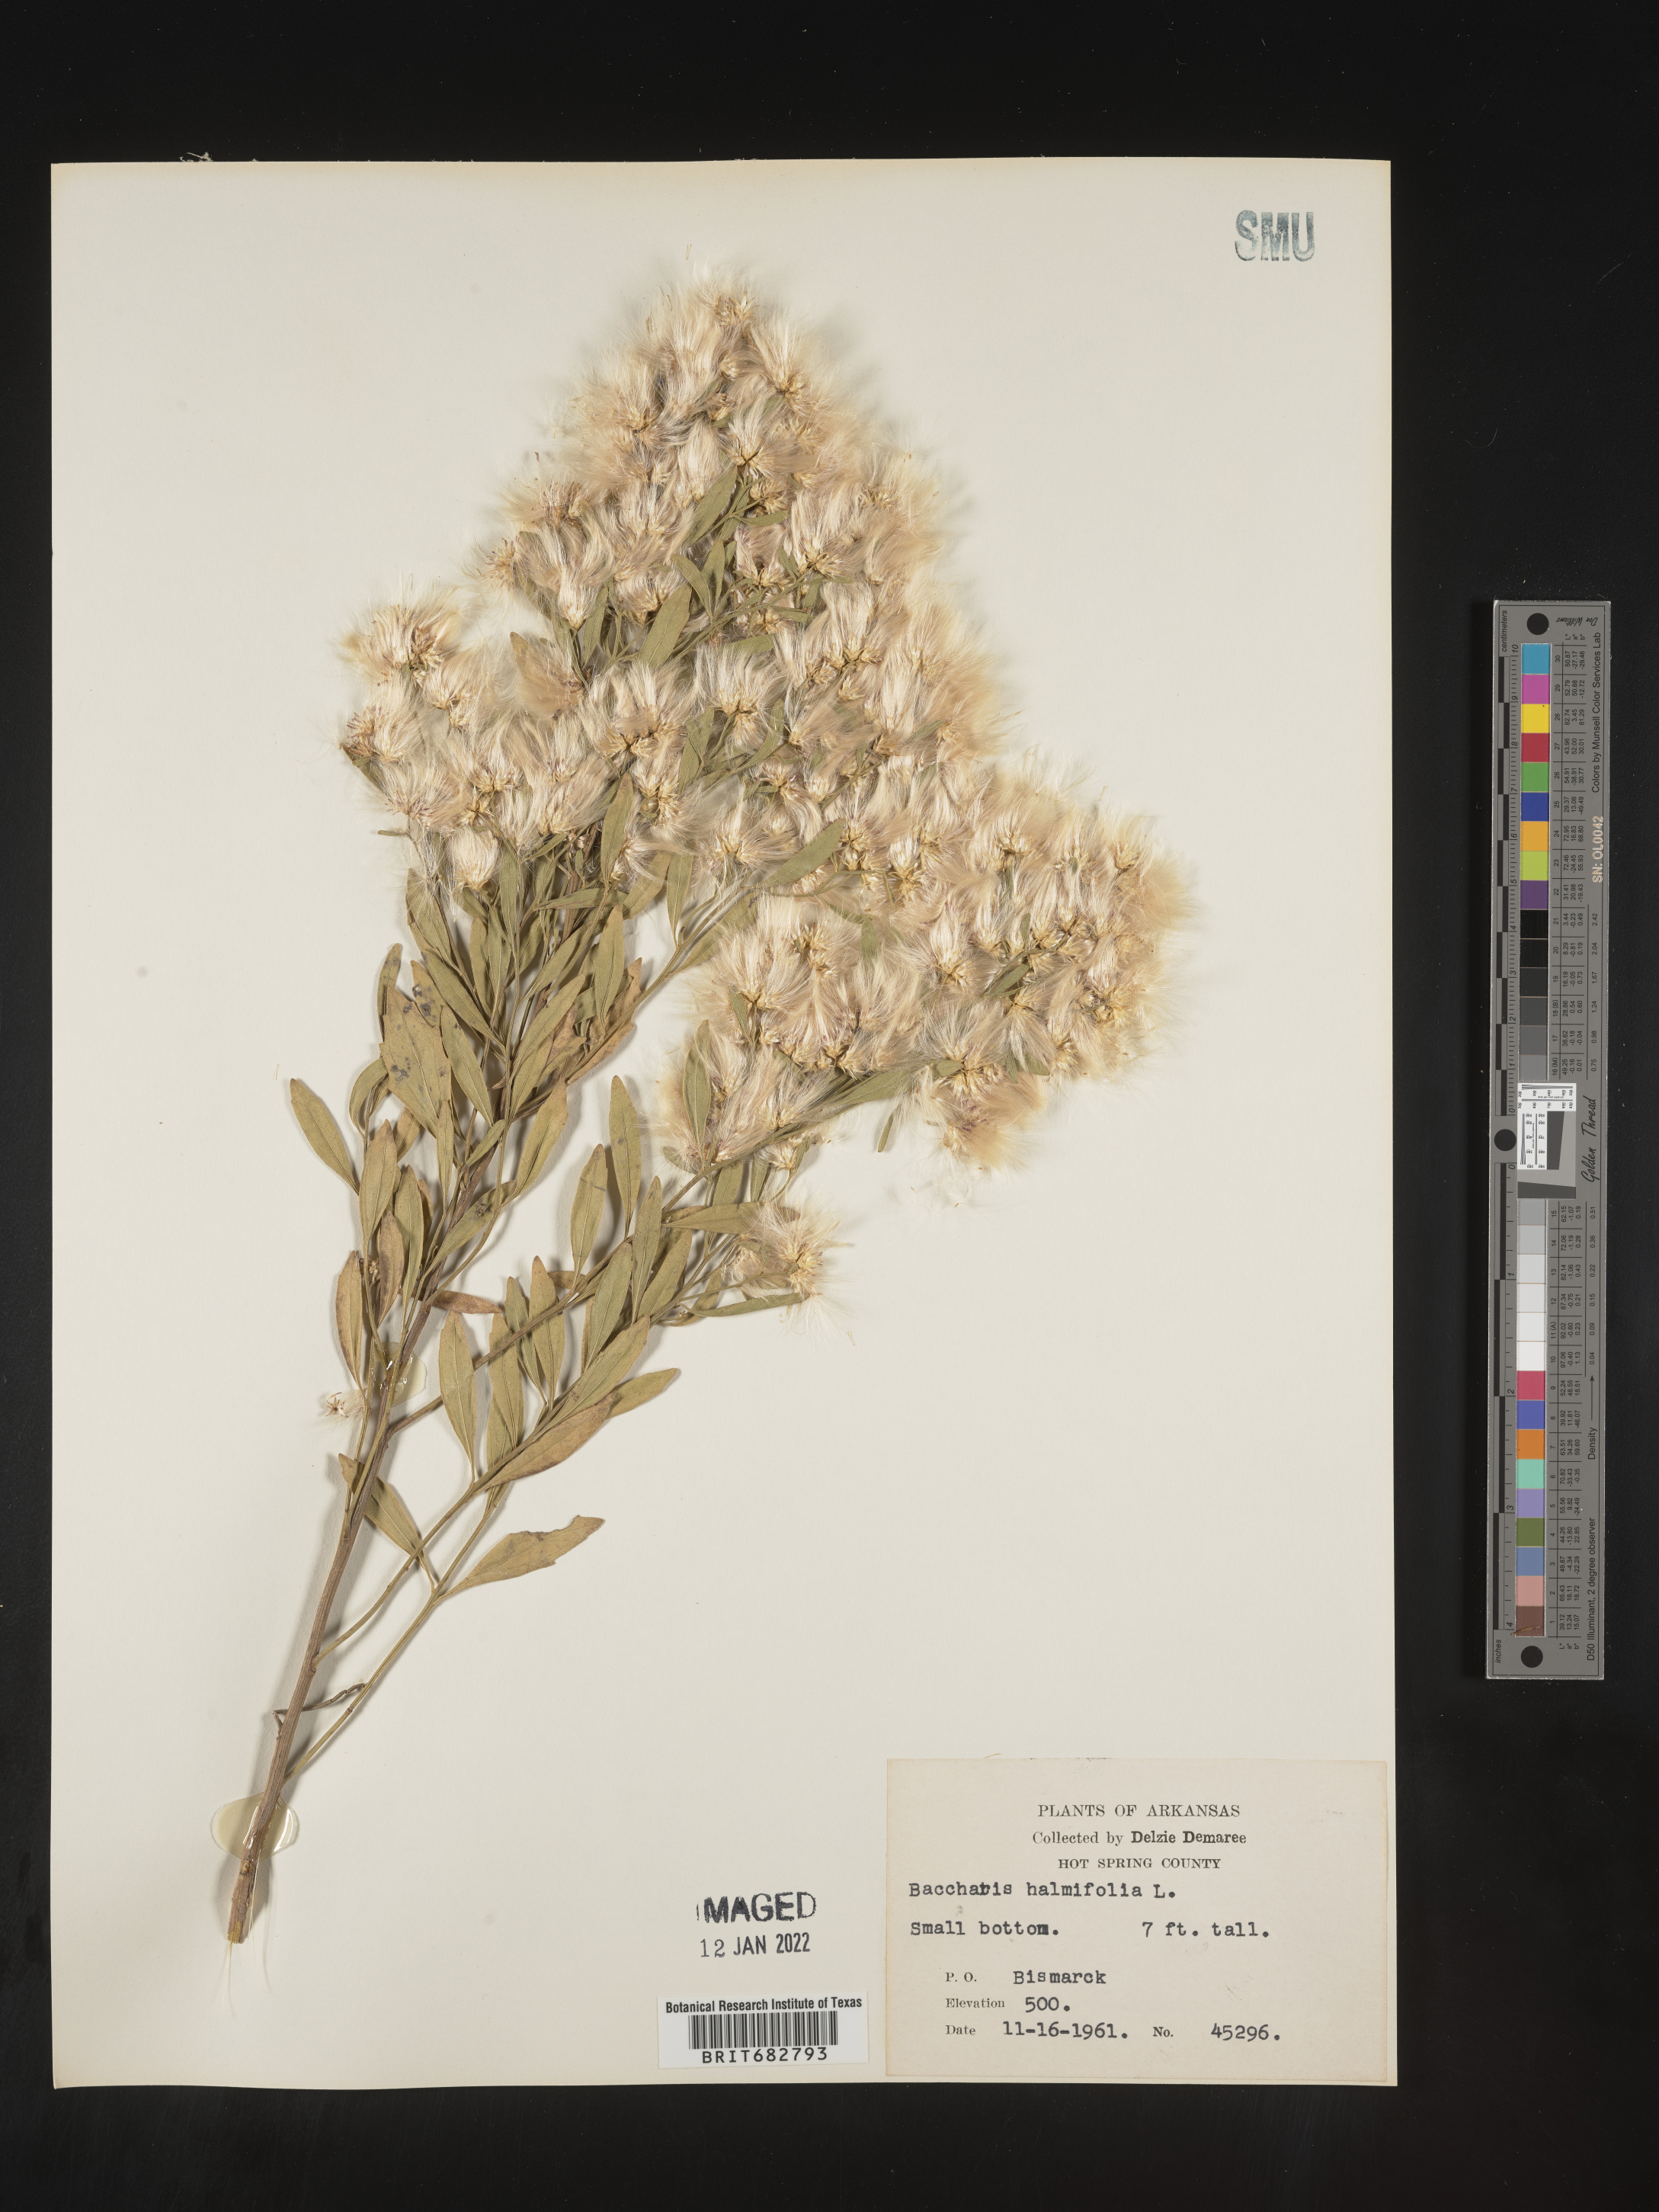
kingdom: Plantae
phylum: Tracheophyta
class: Magnoliopsida
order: Asterales
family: Asteraceae
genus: Nidorella
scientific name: Nidorella ivifolia
